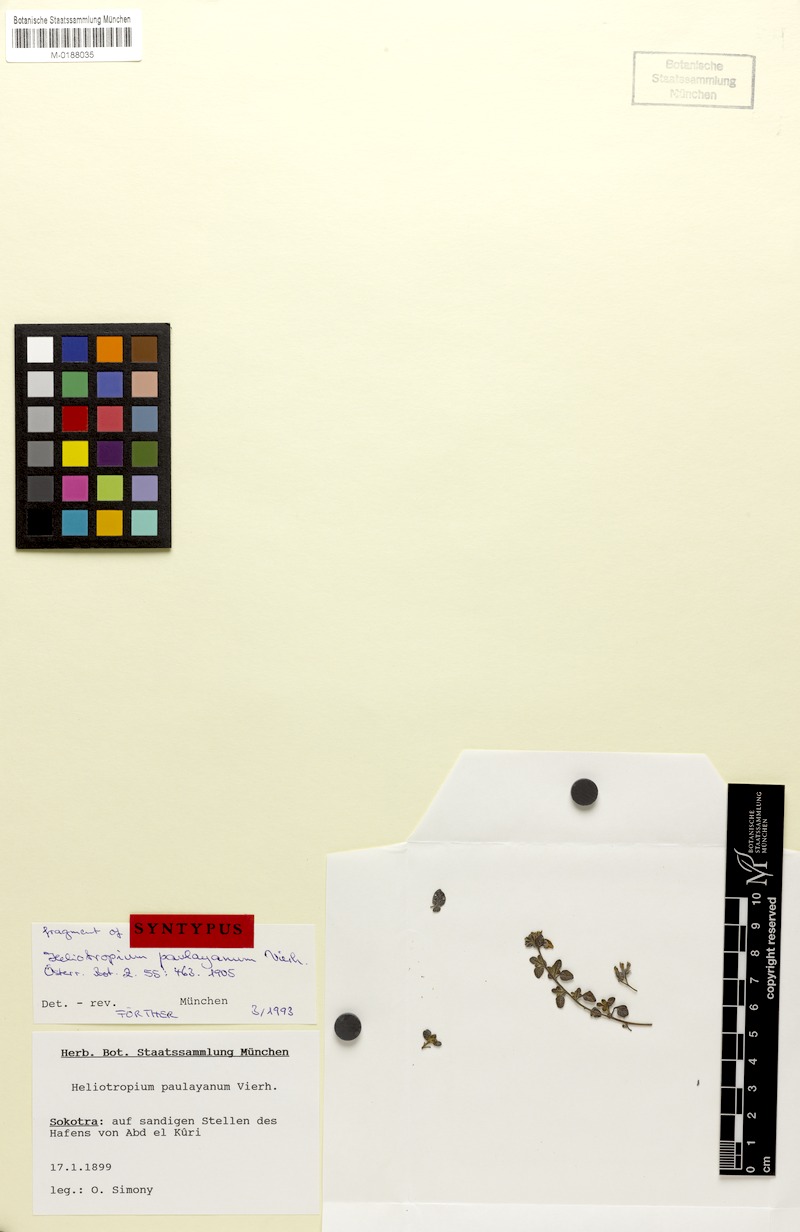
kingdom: Plantae
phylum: Tracheophyta
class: Magnoliopsida
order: Boraginales
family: Heliotropiaceae
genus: Heliotropium
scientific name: Heliotropium paulayanum
